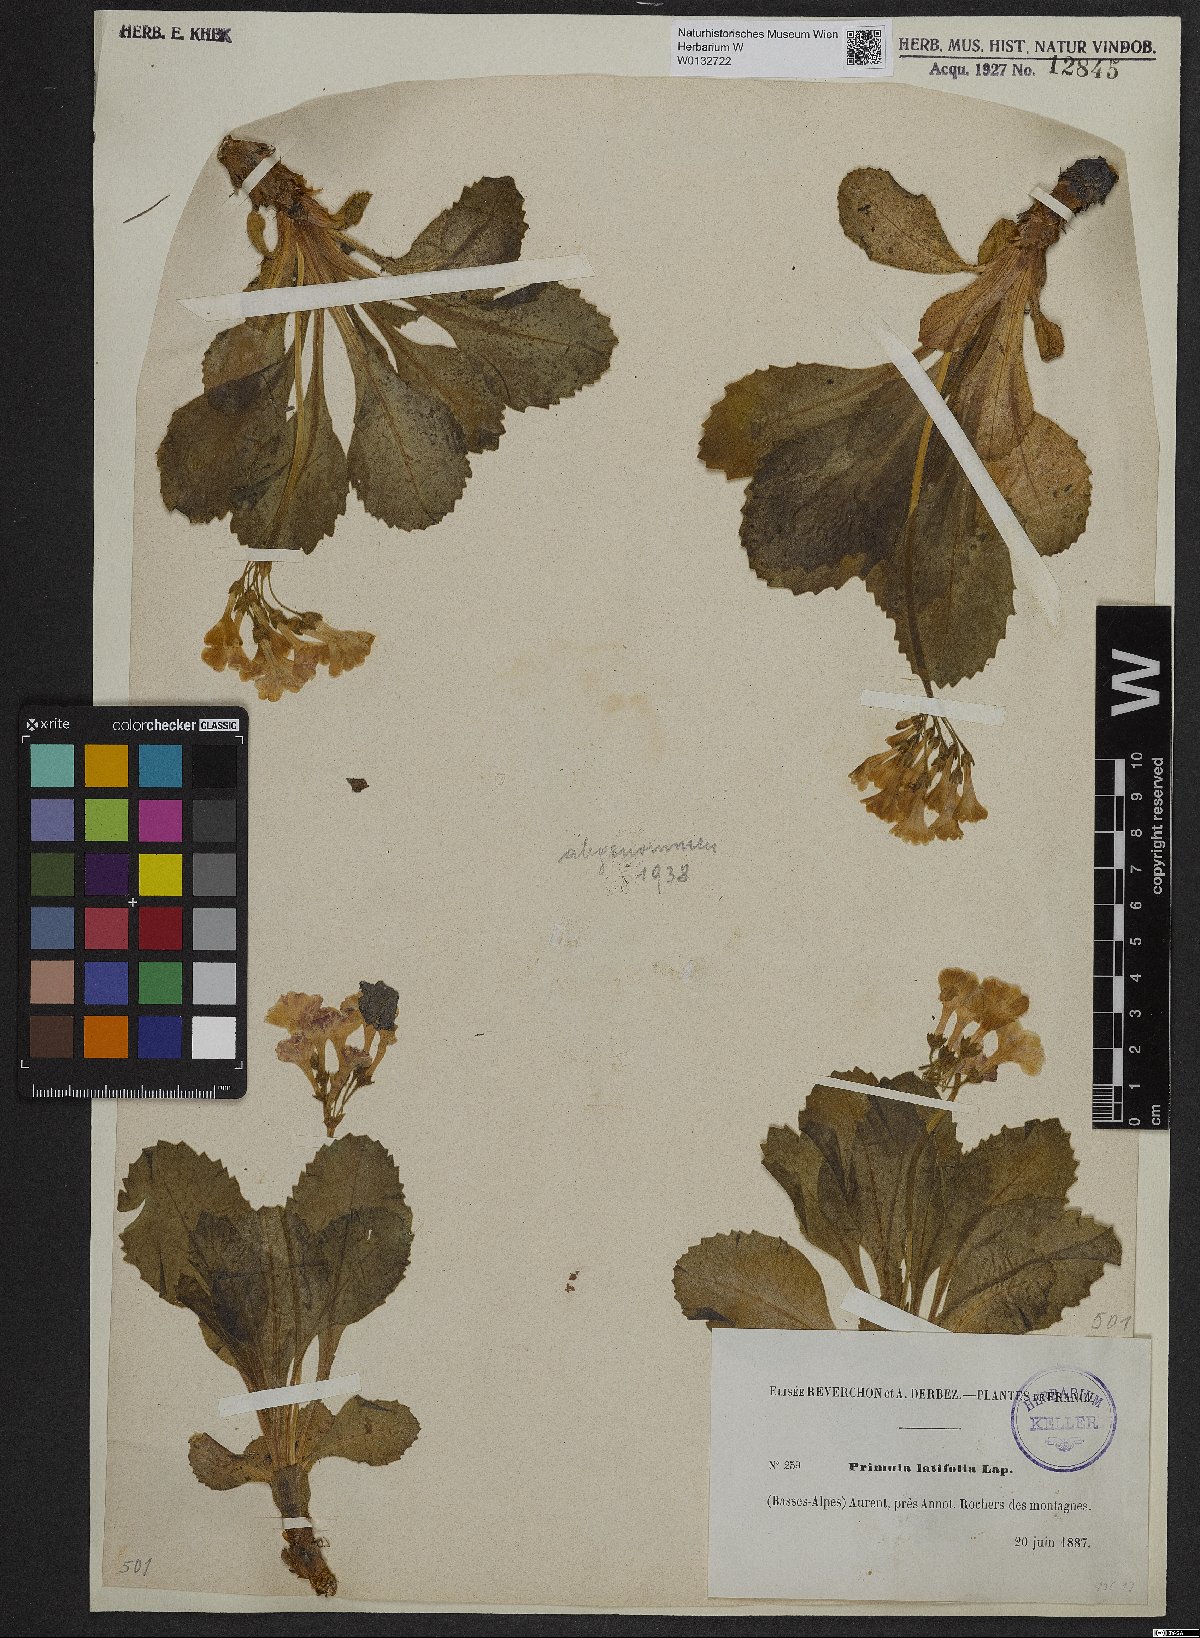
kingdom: Plantae
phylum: Tracheophyta
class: Magnoliopsida
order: Ericales
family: Primulaceae
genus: Primula
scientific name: Primula latifolia
